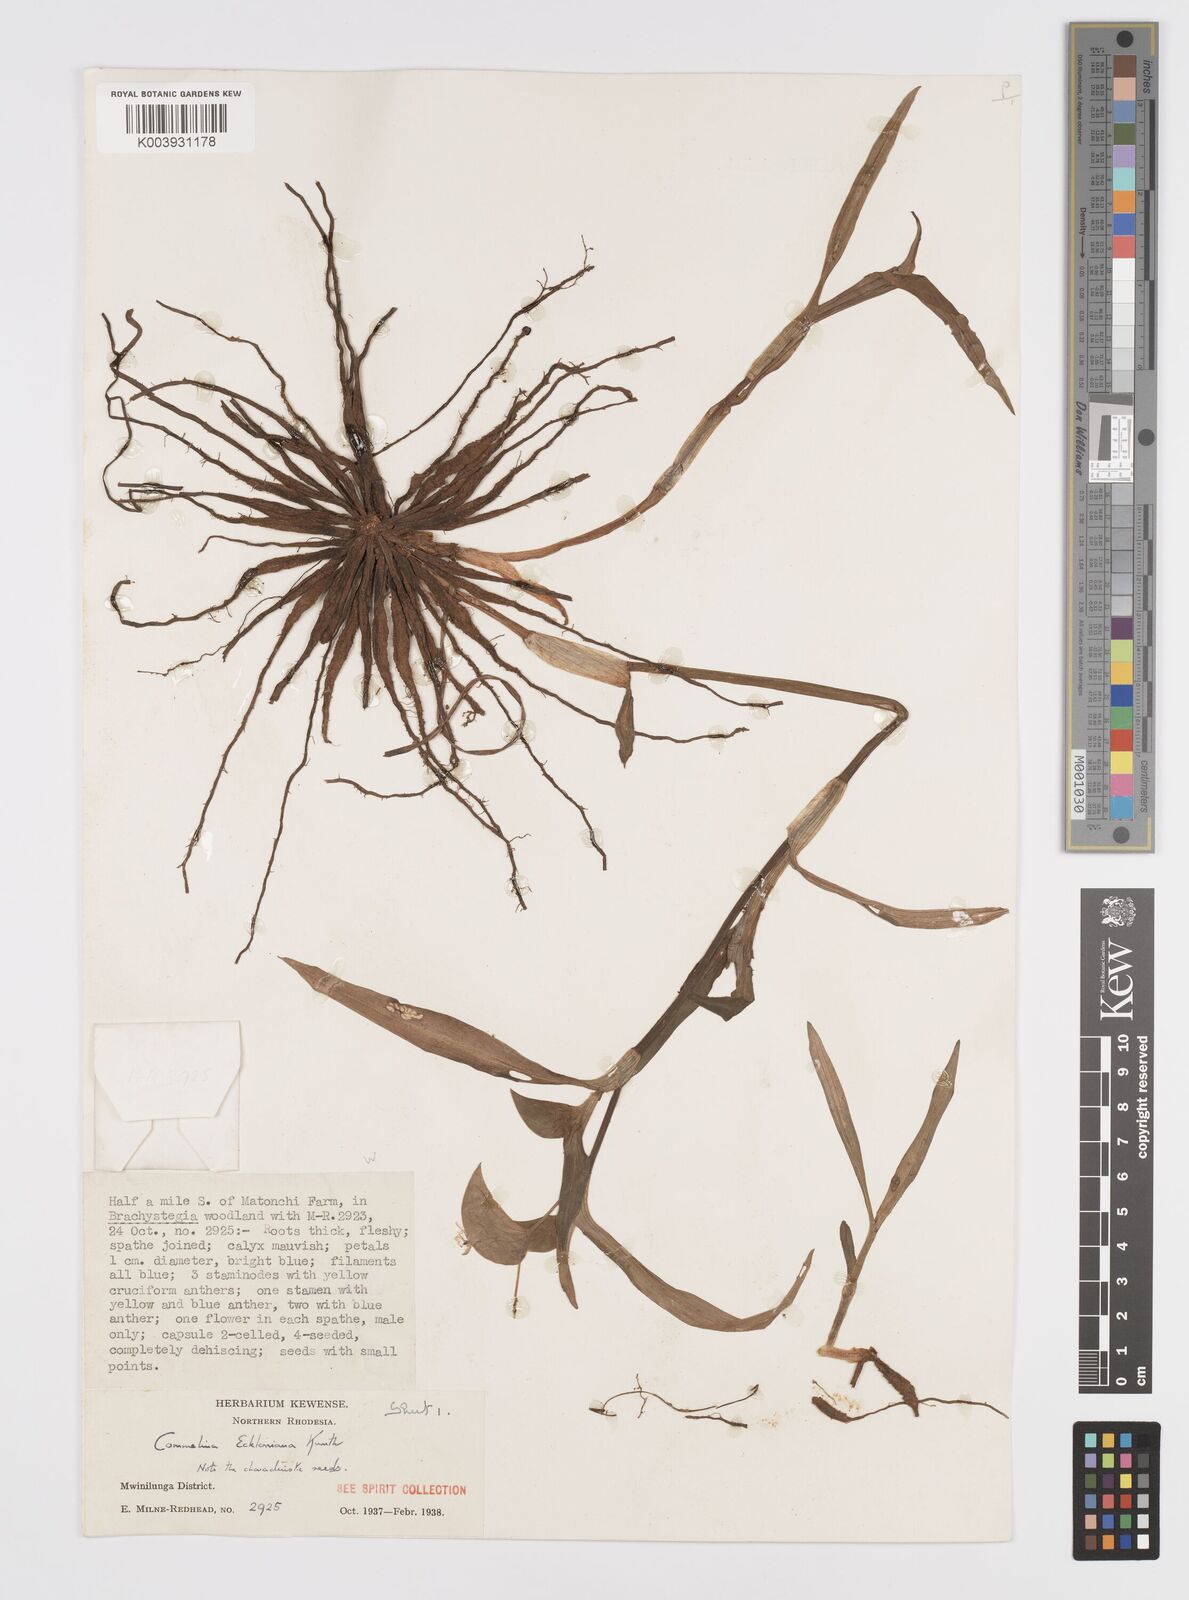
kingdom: Plantae
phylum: Tracheophyta
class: Liliopsida
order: Commelinales
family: Commelinaceae
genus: Commelina
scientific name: Commelina eckloniana
